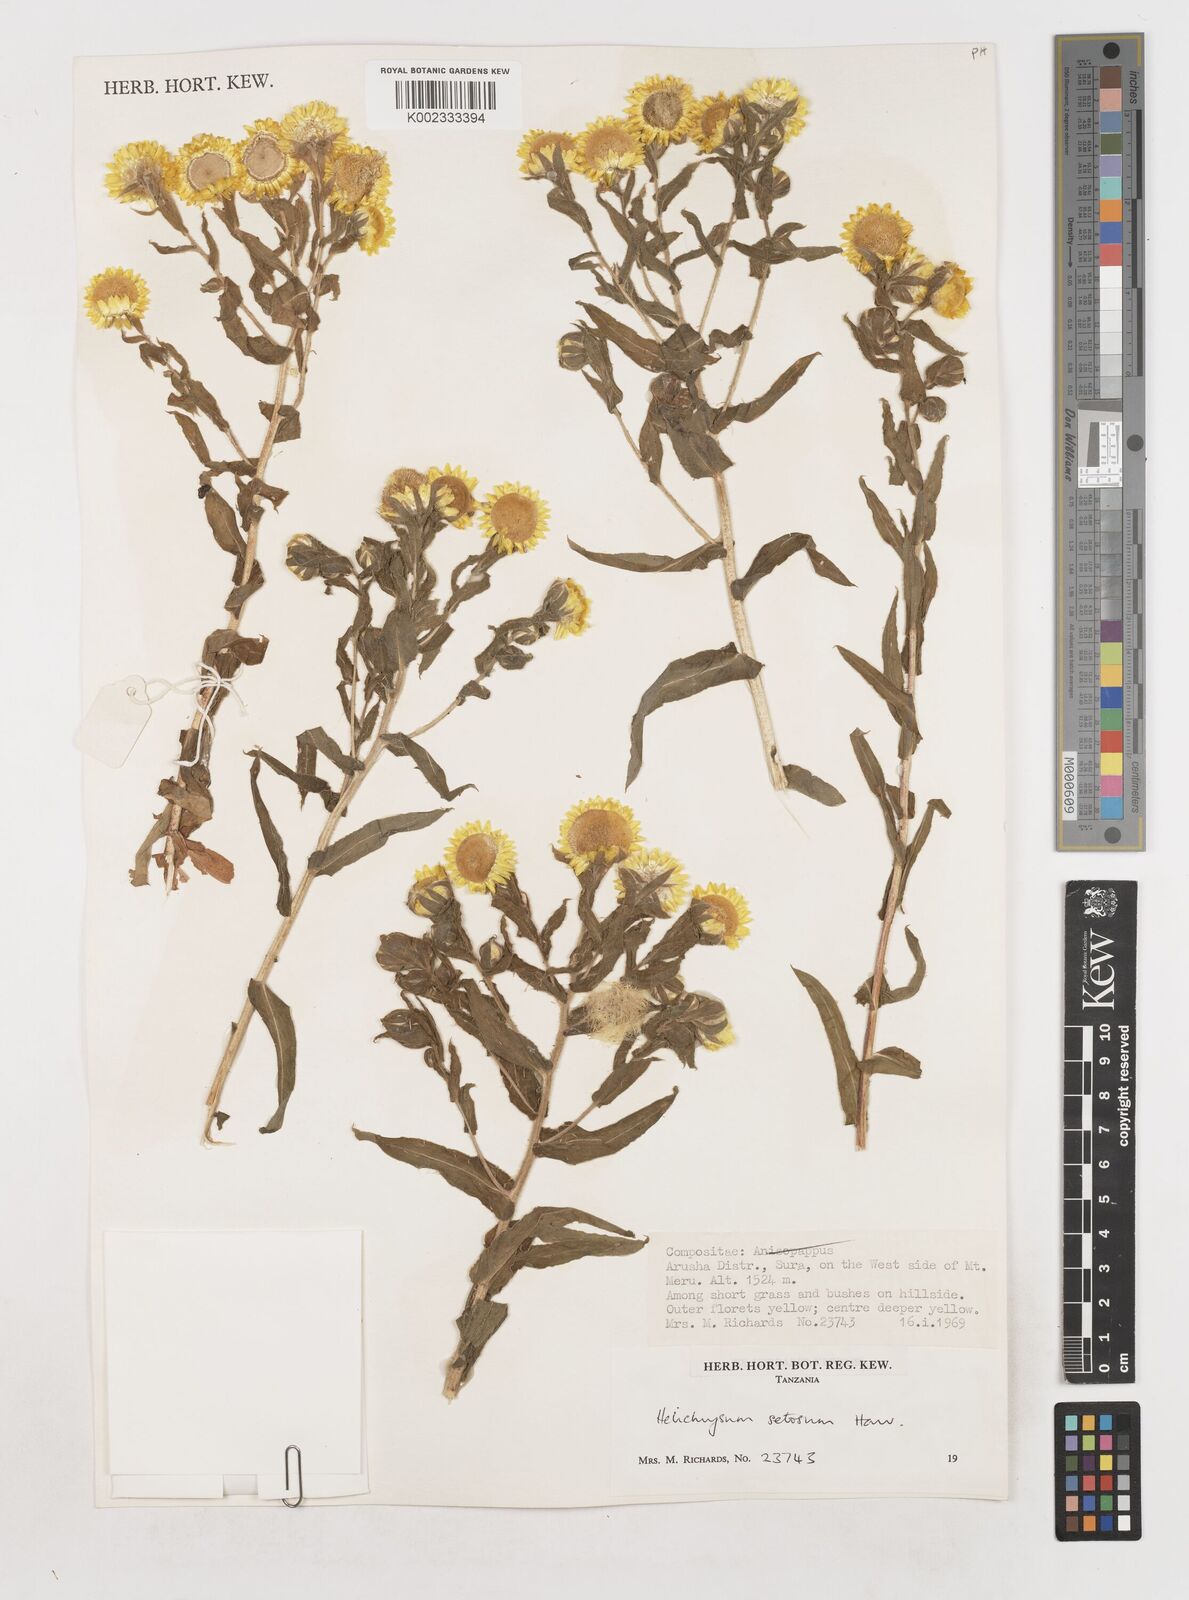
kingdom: Plantae
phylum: Tracheophyta
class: Magnoliopsida
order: Asterales
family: Asteraceae
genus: Helichrysum
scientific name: Helichrysum setosum
